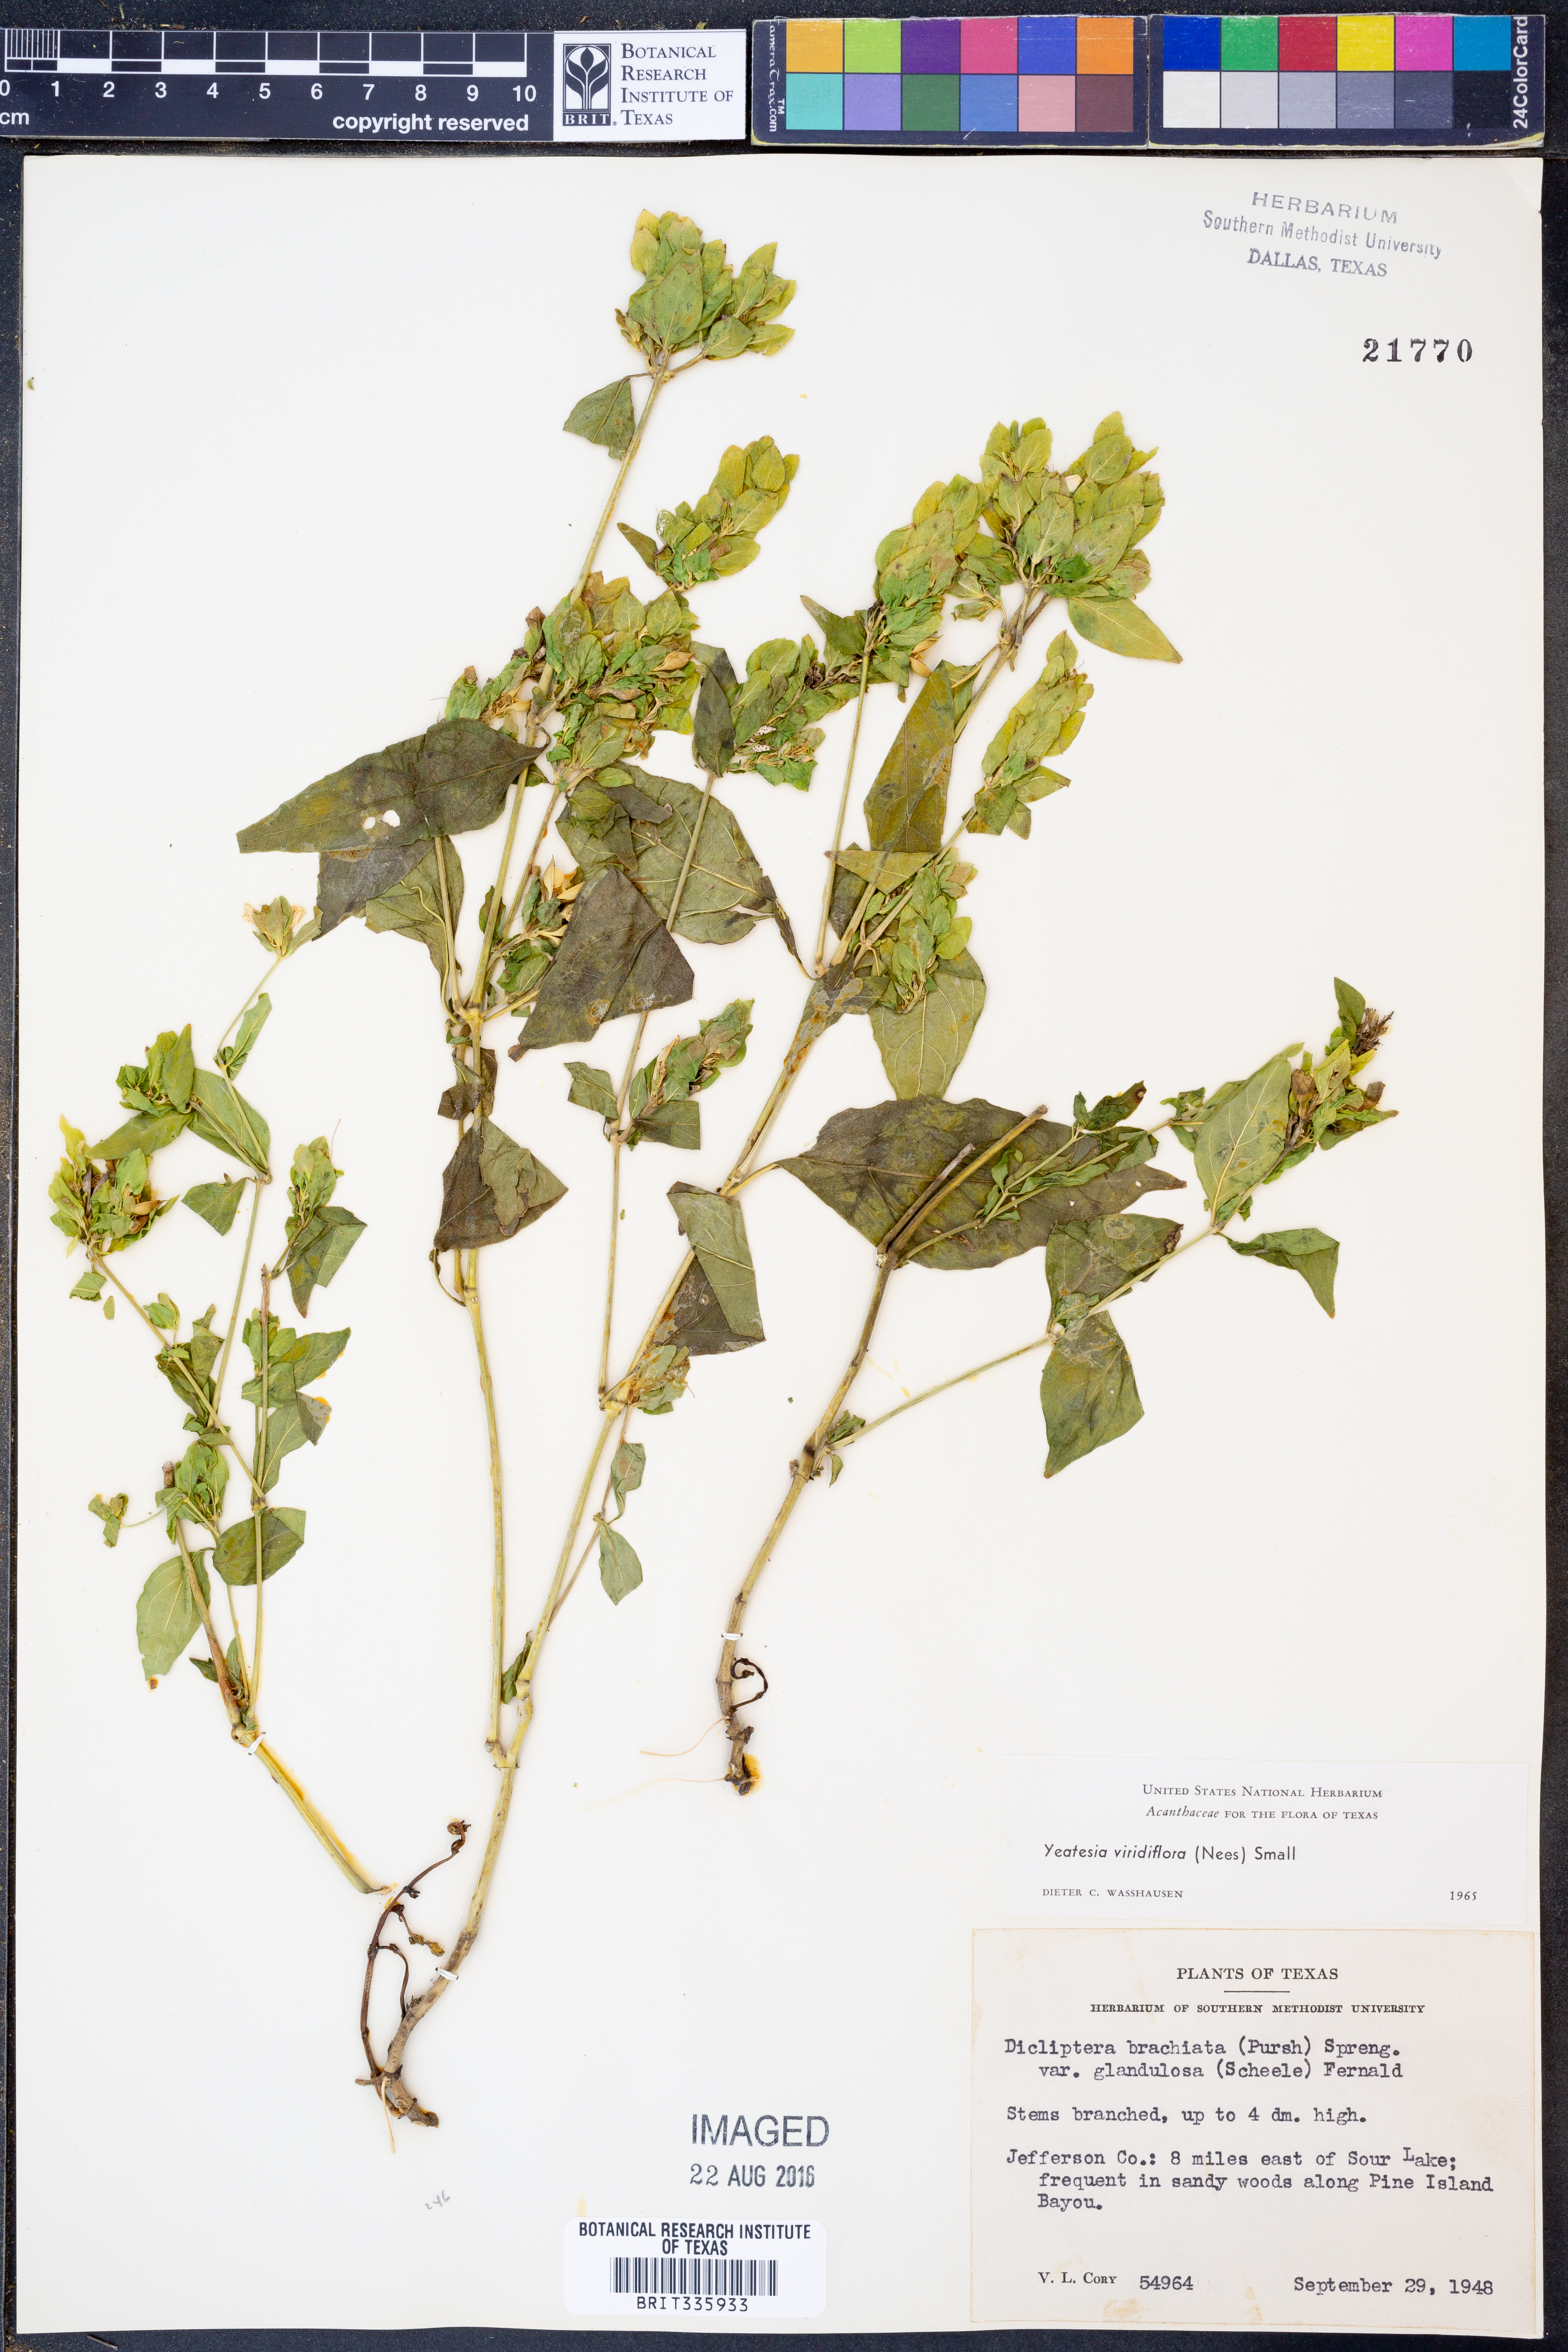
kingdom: Plantae
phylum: Tracheophyta
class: Magnoliopsida
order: Lamiales
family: Acanthaceae
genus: Yeatesia
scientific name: Yeatesia viridiflora
